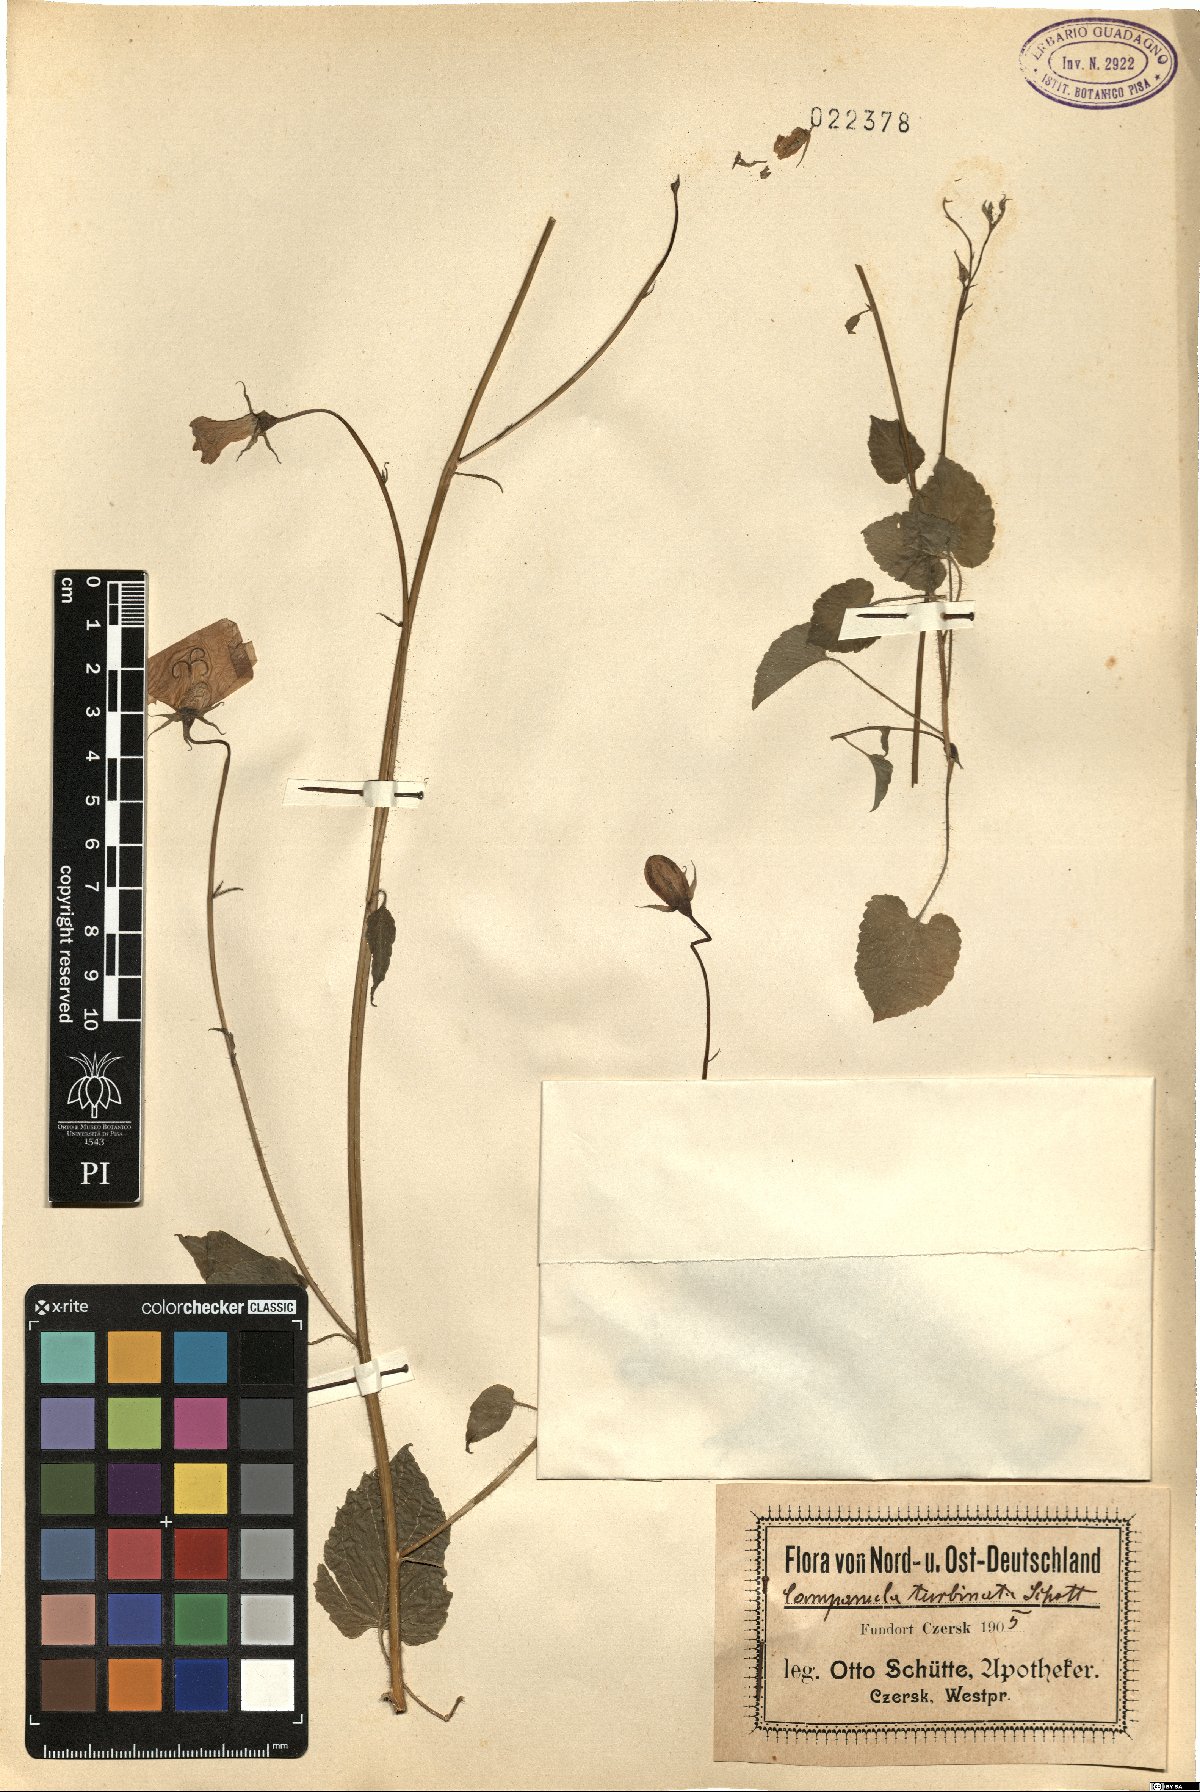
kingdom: Plantae
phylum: Tracheophyta
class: Magnoliopsida
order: Asterales
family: Campanulaceae
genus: Campanula
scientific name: Campanula carpatica
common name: Tussock bellflower
